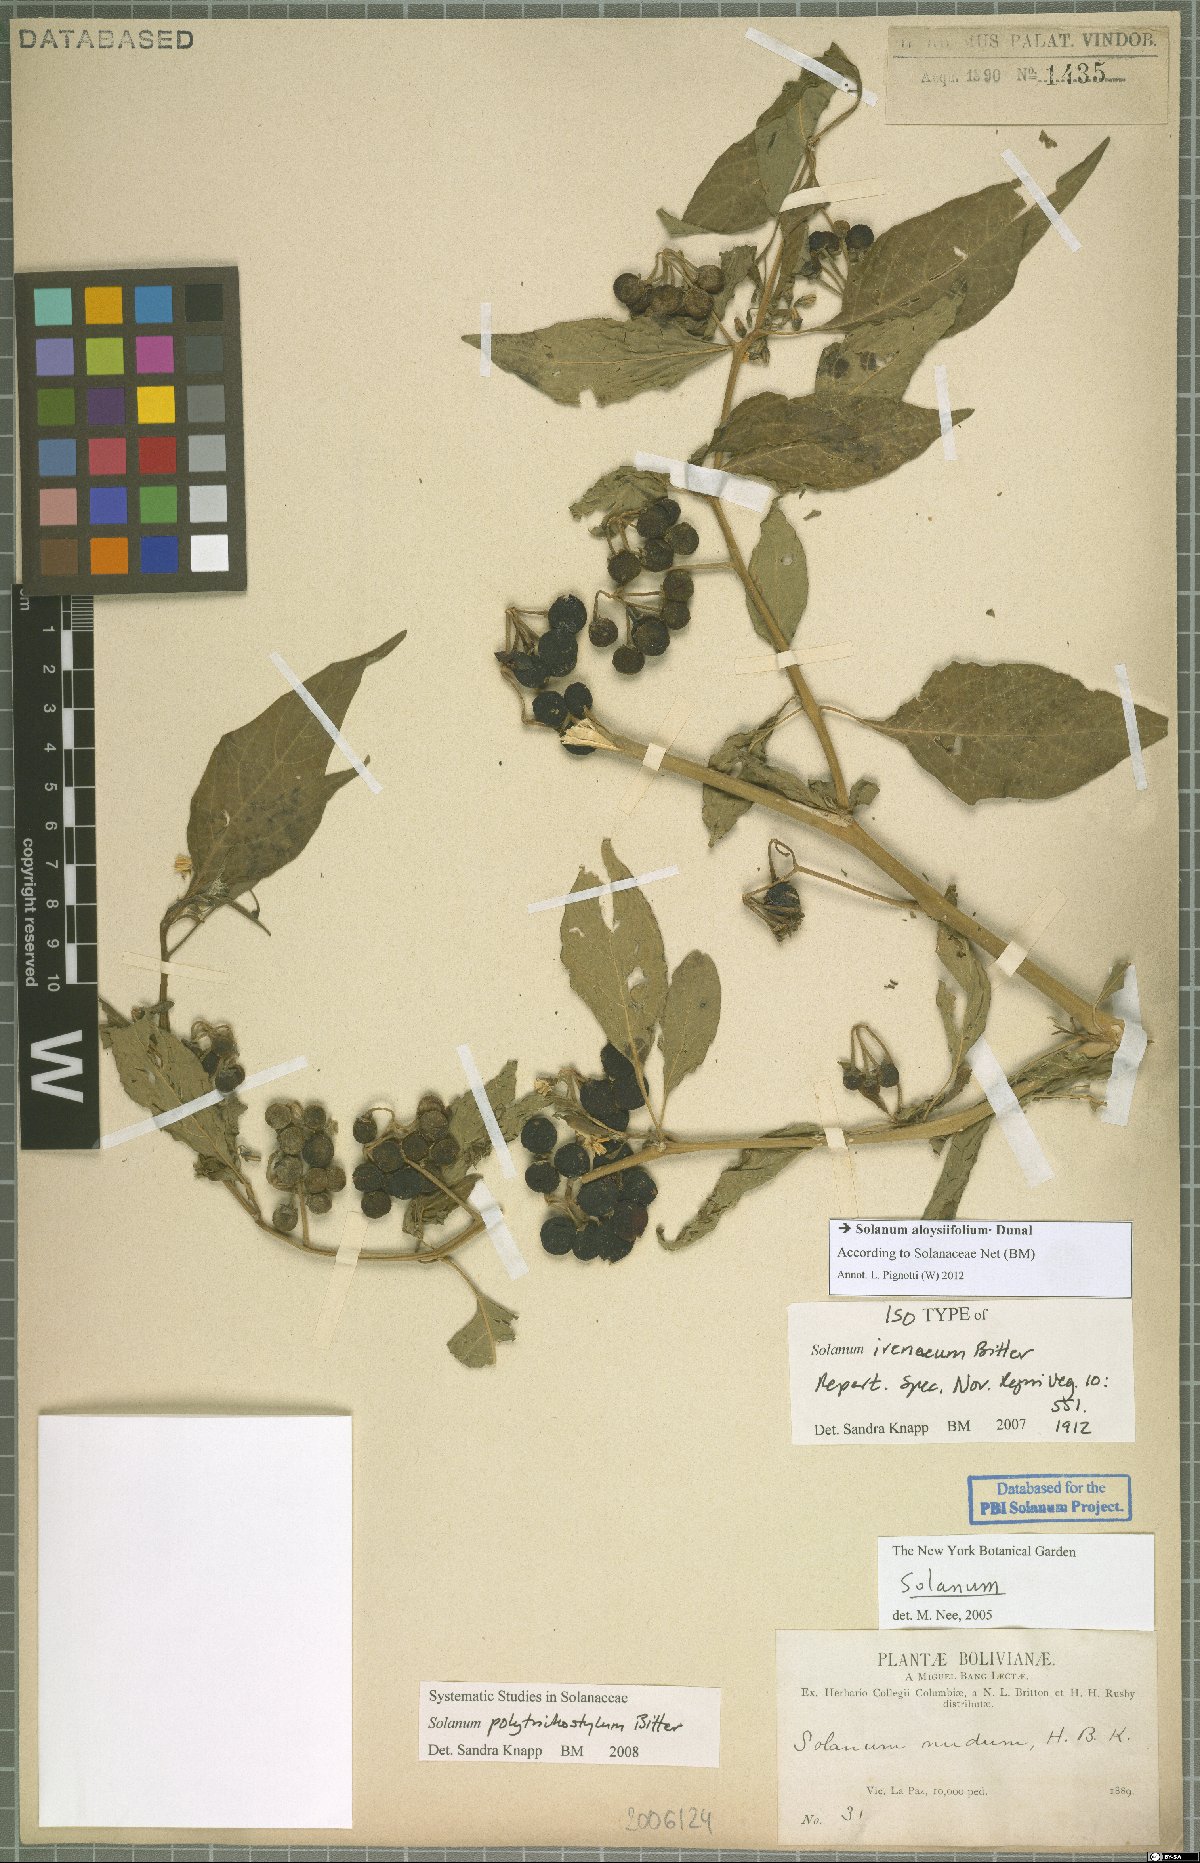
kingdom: Plantae
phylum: Tracheophyta
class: Magnoliopsida
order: Solanales
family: Solanaceae
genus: Solanum
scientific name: Solanum aloysiifolium
